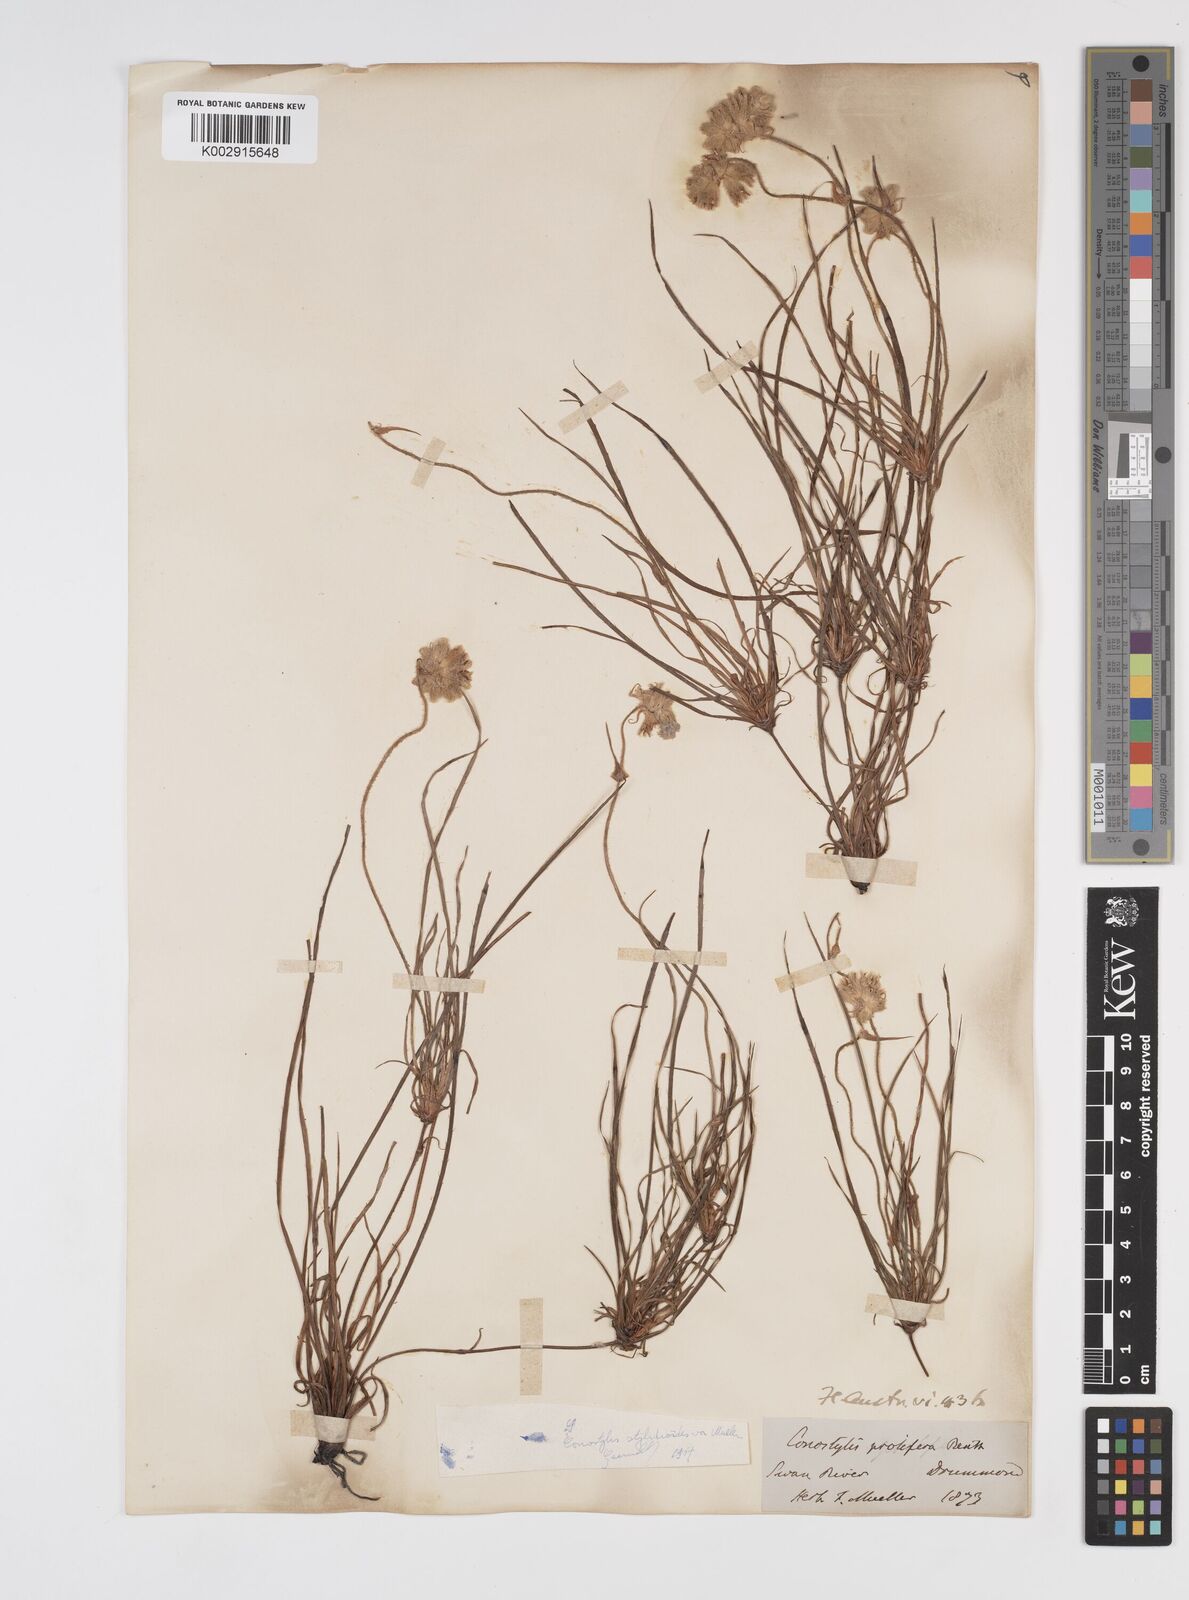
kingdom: Plantae
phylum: Tracheophyta
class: Liliopsida
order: Commelinales
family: Haemodoraceae
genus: Conostylis
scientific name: Conostylis stylidioides
